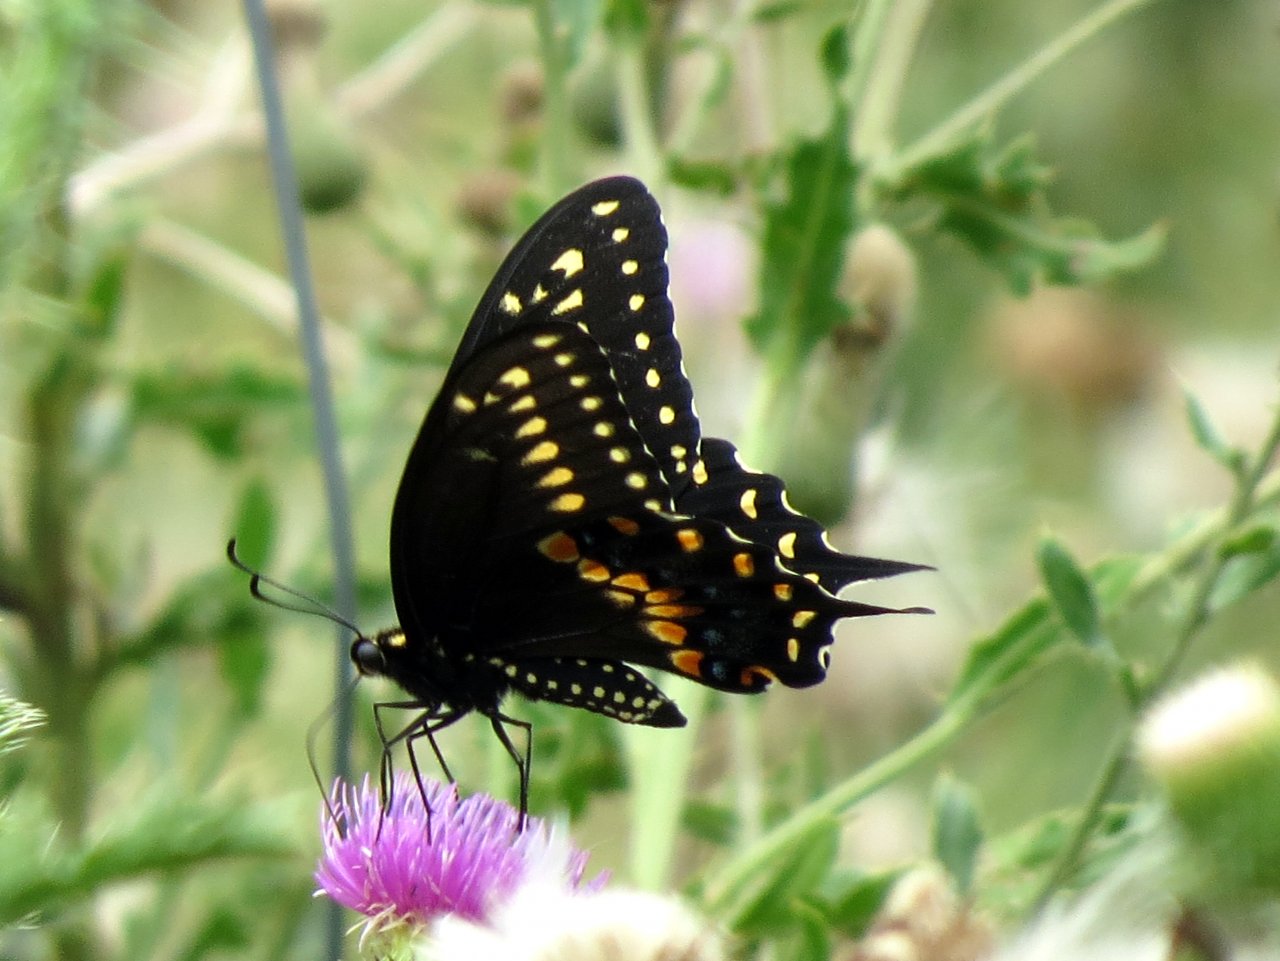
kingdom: Animalia
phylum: Arthropoda
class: Insecta
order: Lepidoptera
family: Papilionidae
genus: Papilio
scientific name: Papilio polyxenes
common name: Black Swallowtail
